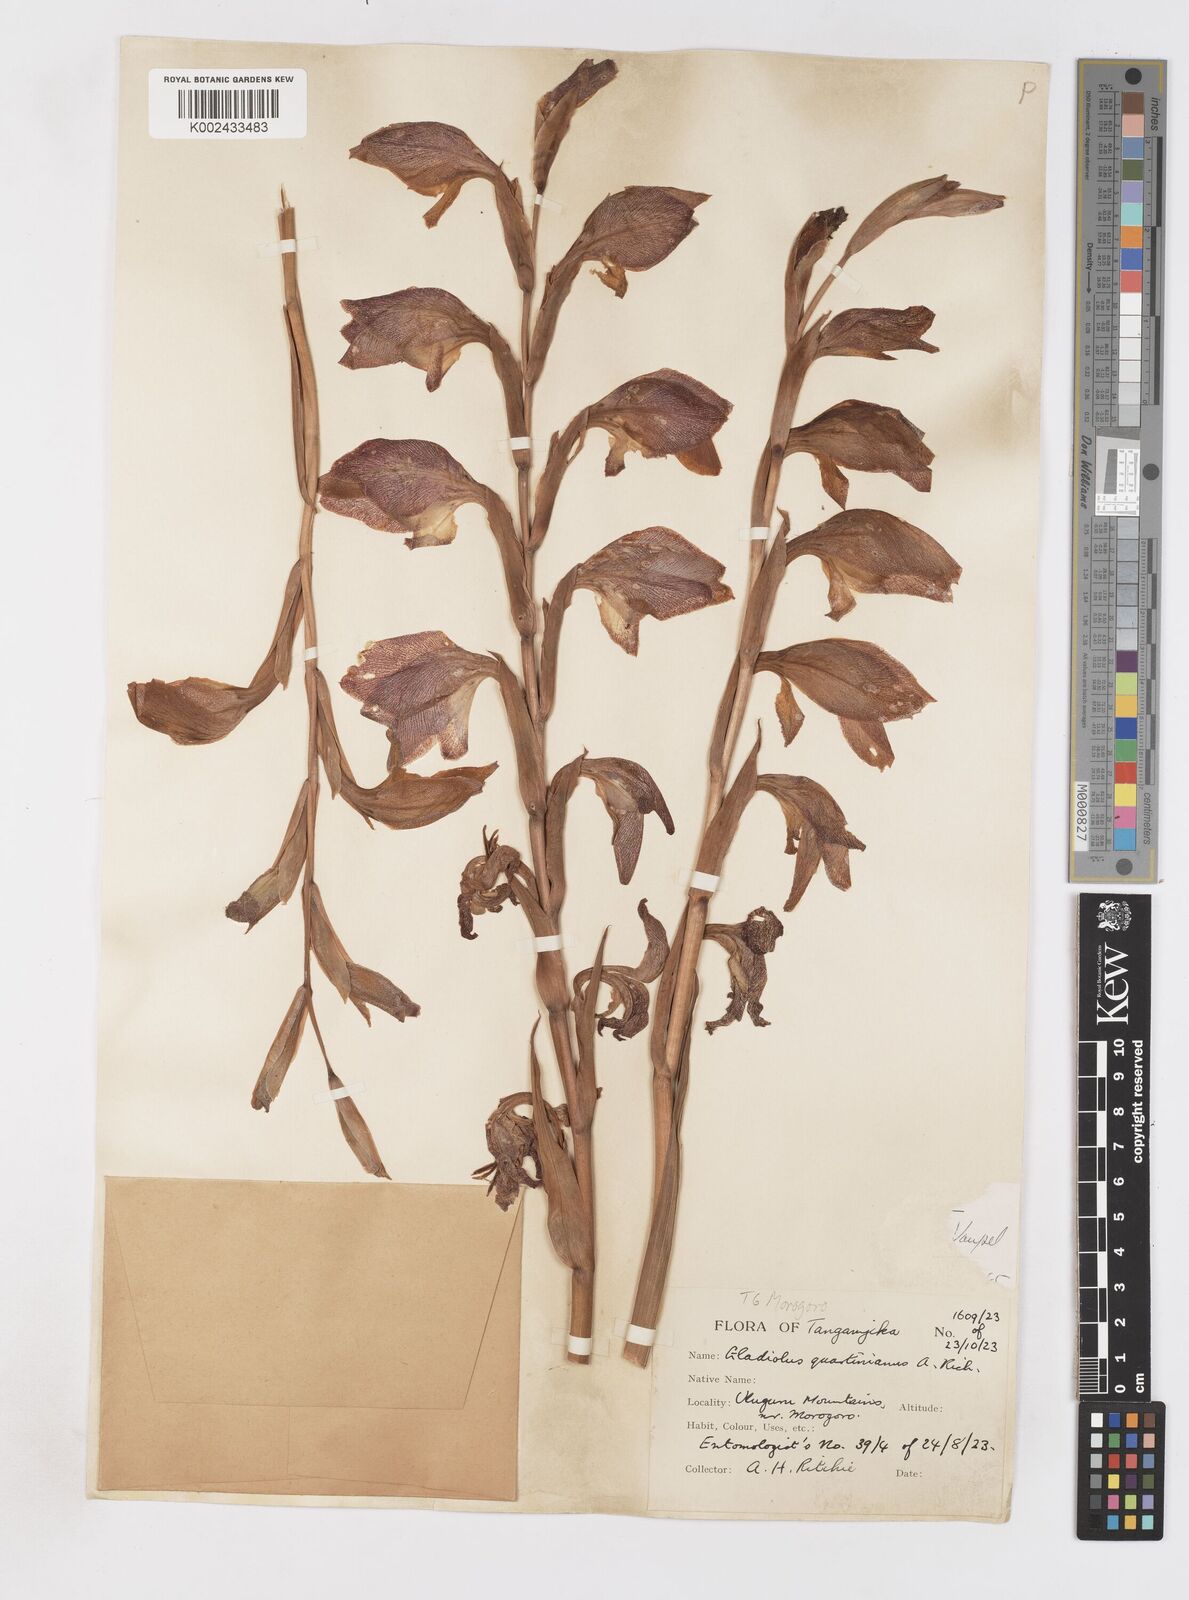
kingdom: Plantae
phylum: Tracheophyta
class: Liliopsida
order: Asparagales
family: Iridaceae
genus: Gladiolus
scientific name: Gladiolus dalenii
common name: Cornflag
